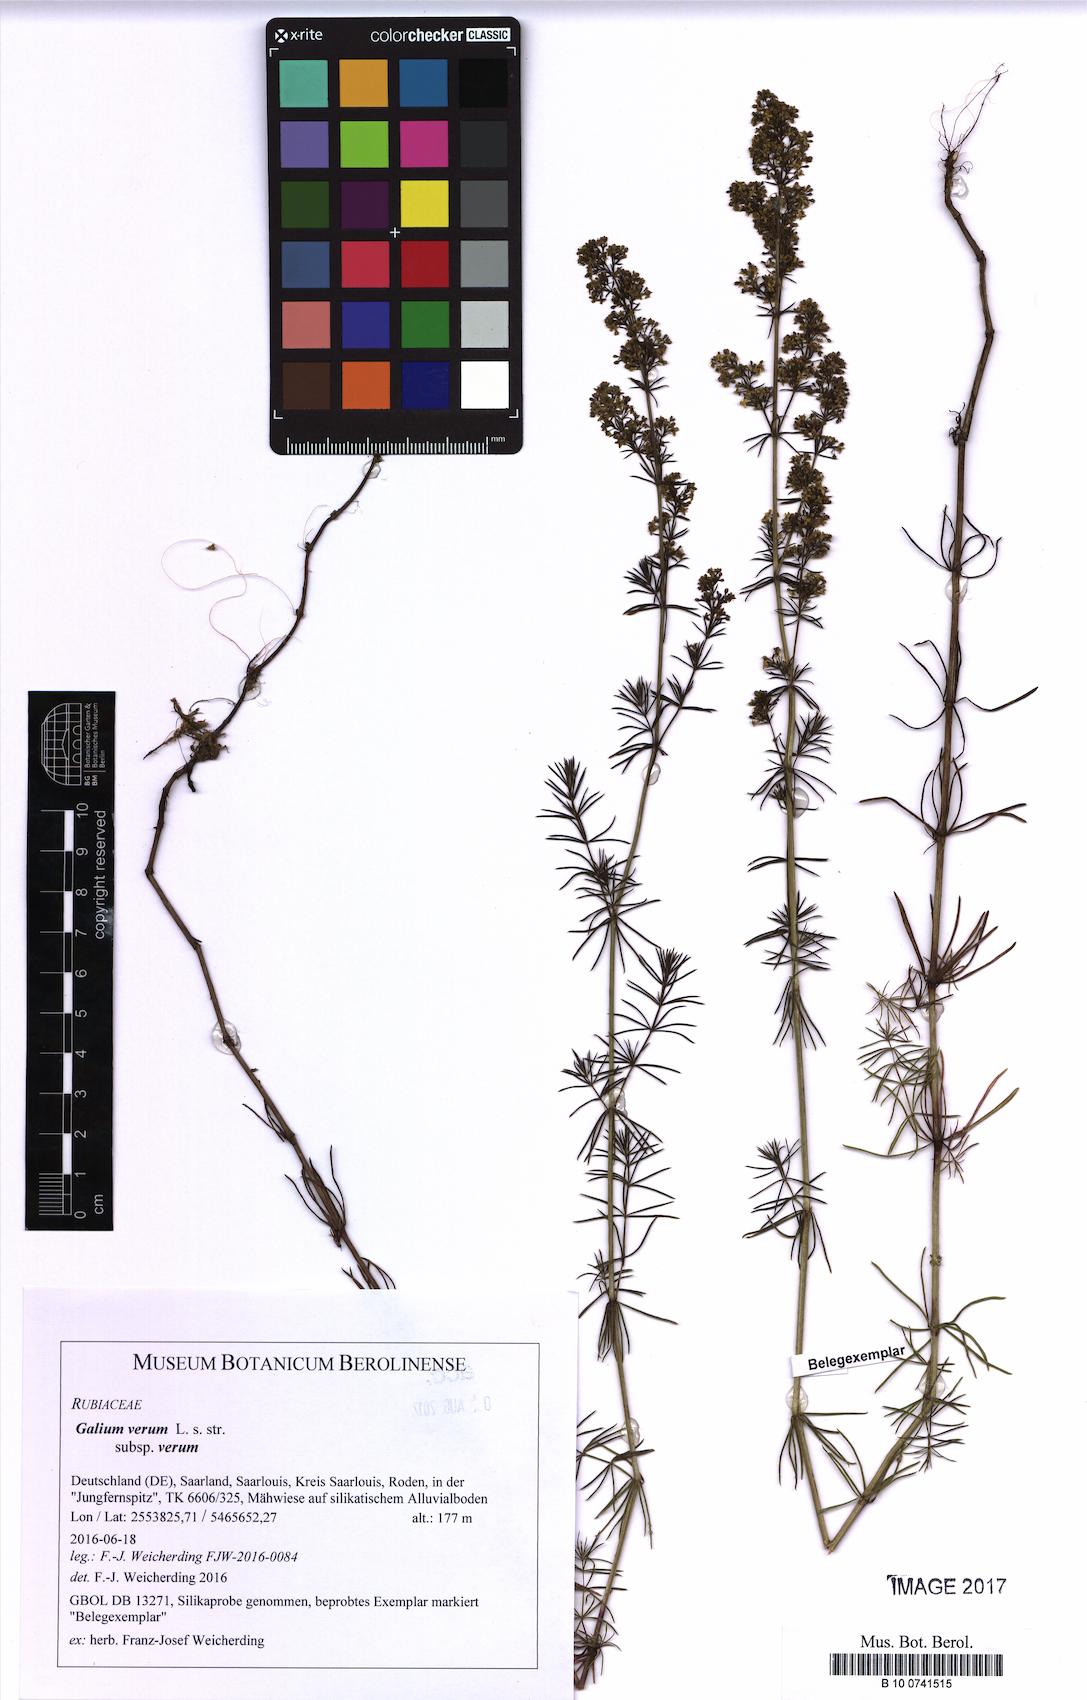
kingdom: Plantae
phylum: Tracheophyta
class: Magnoliopsida
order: Gentianales
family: Rubiaceae
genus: Galium
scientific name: Galium verum
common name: Lady's bedstraw
